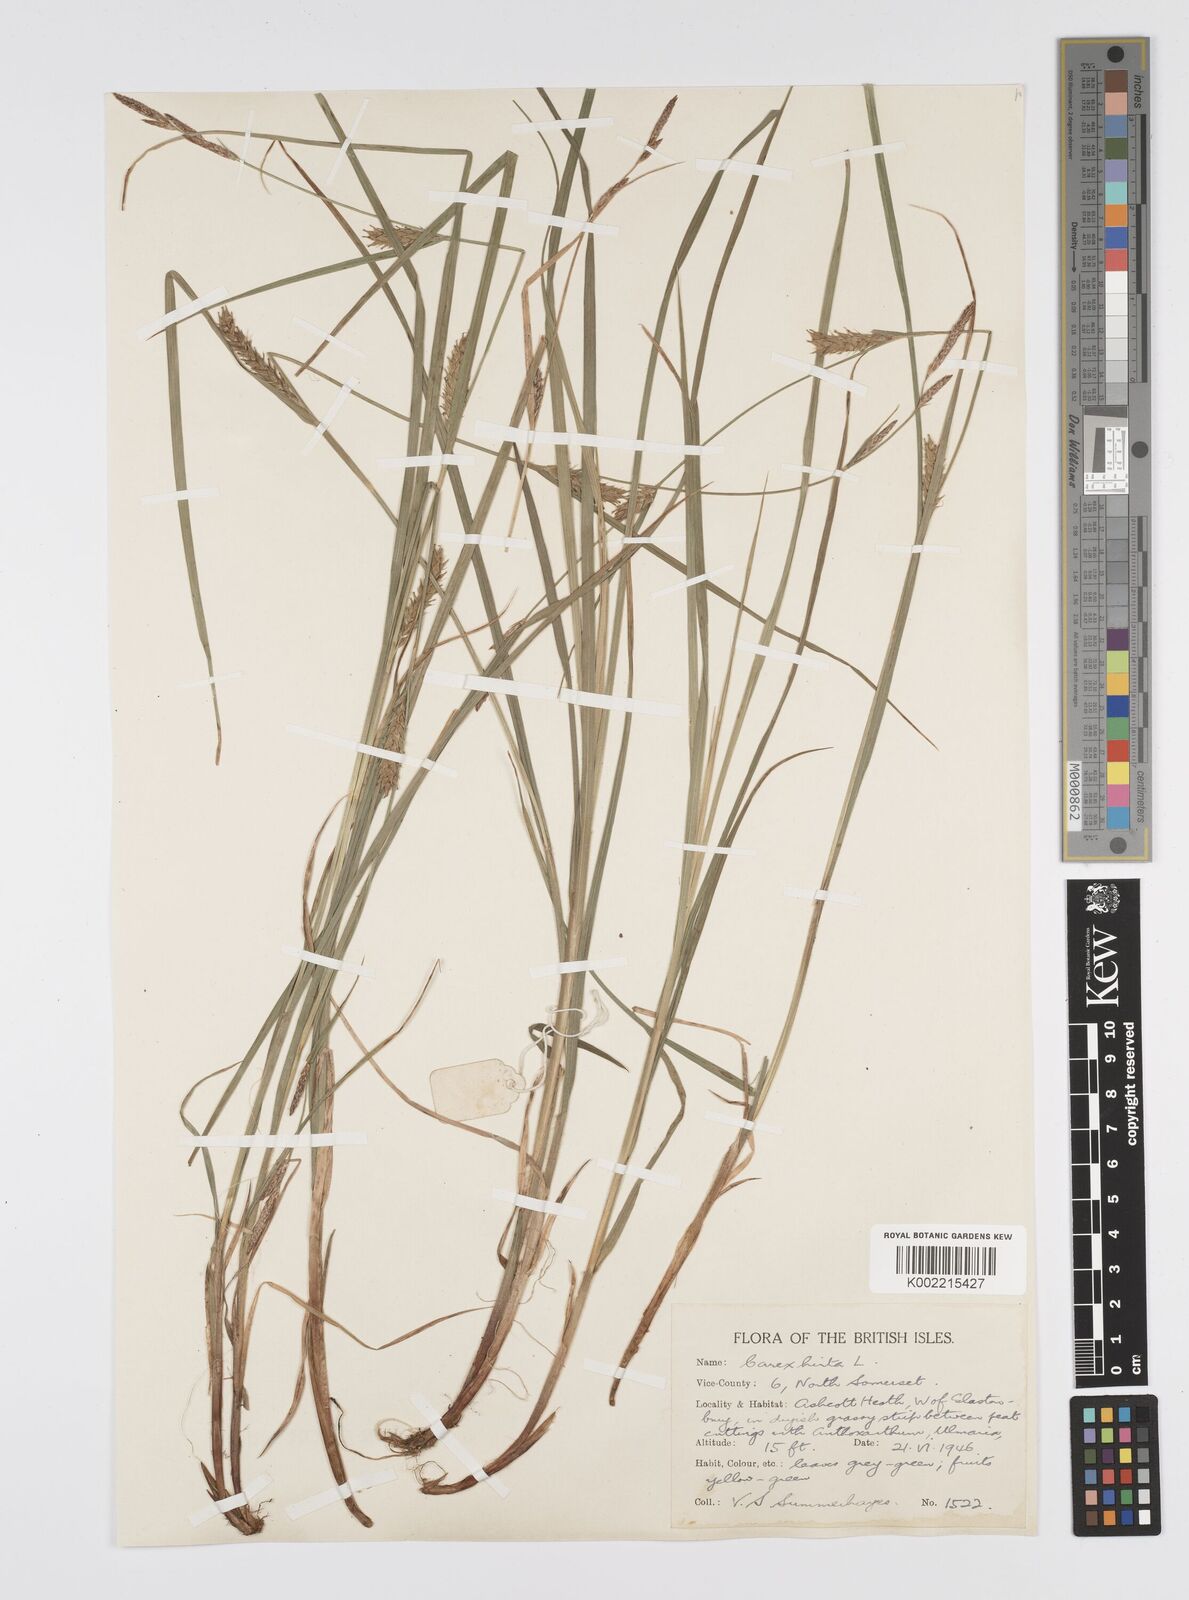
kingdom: Plantae
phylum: Tracheophyta
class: Liliopsida
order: Poales
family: Cyperaceae
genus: Carex
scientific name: Carex hirta
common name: Hairy sedge
